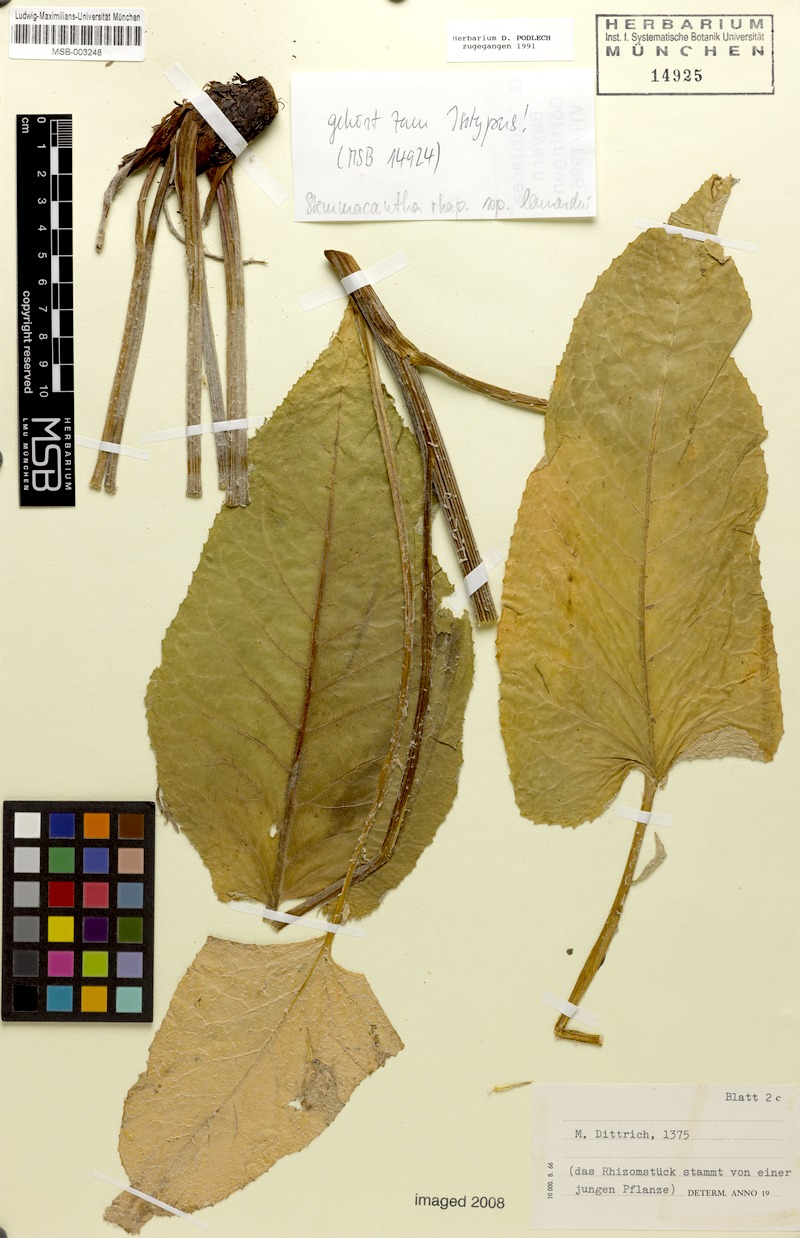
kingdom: Plantae
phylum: Tracheophyta
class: Magnoliopsida
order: Asterales
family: Asteraceae
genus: Leuzea
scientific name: Leuzea pusilla
